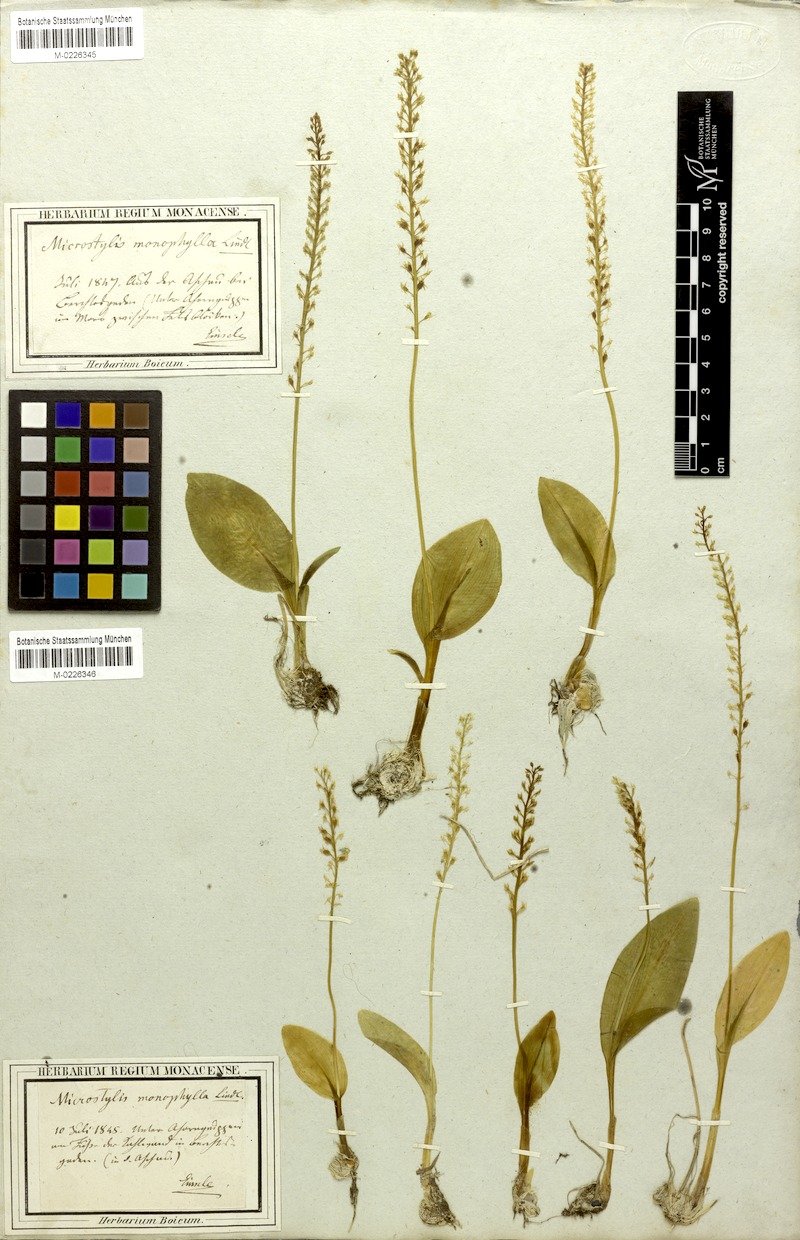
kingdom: Plantae
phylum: Tracheophyta
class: Liliopsida
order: Asparagales
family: Orchidaceae
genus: Malaxis
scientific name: Malaxis monophyllos
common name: White adder's-mouth
